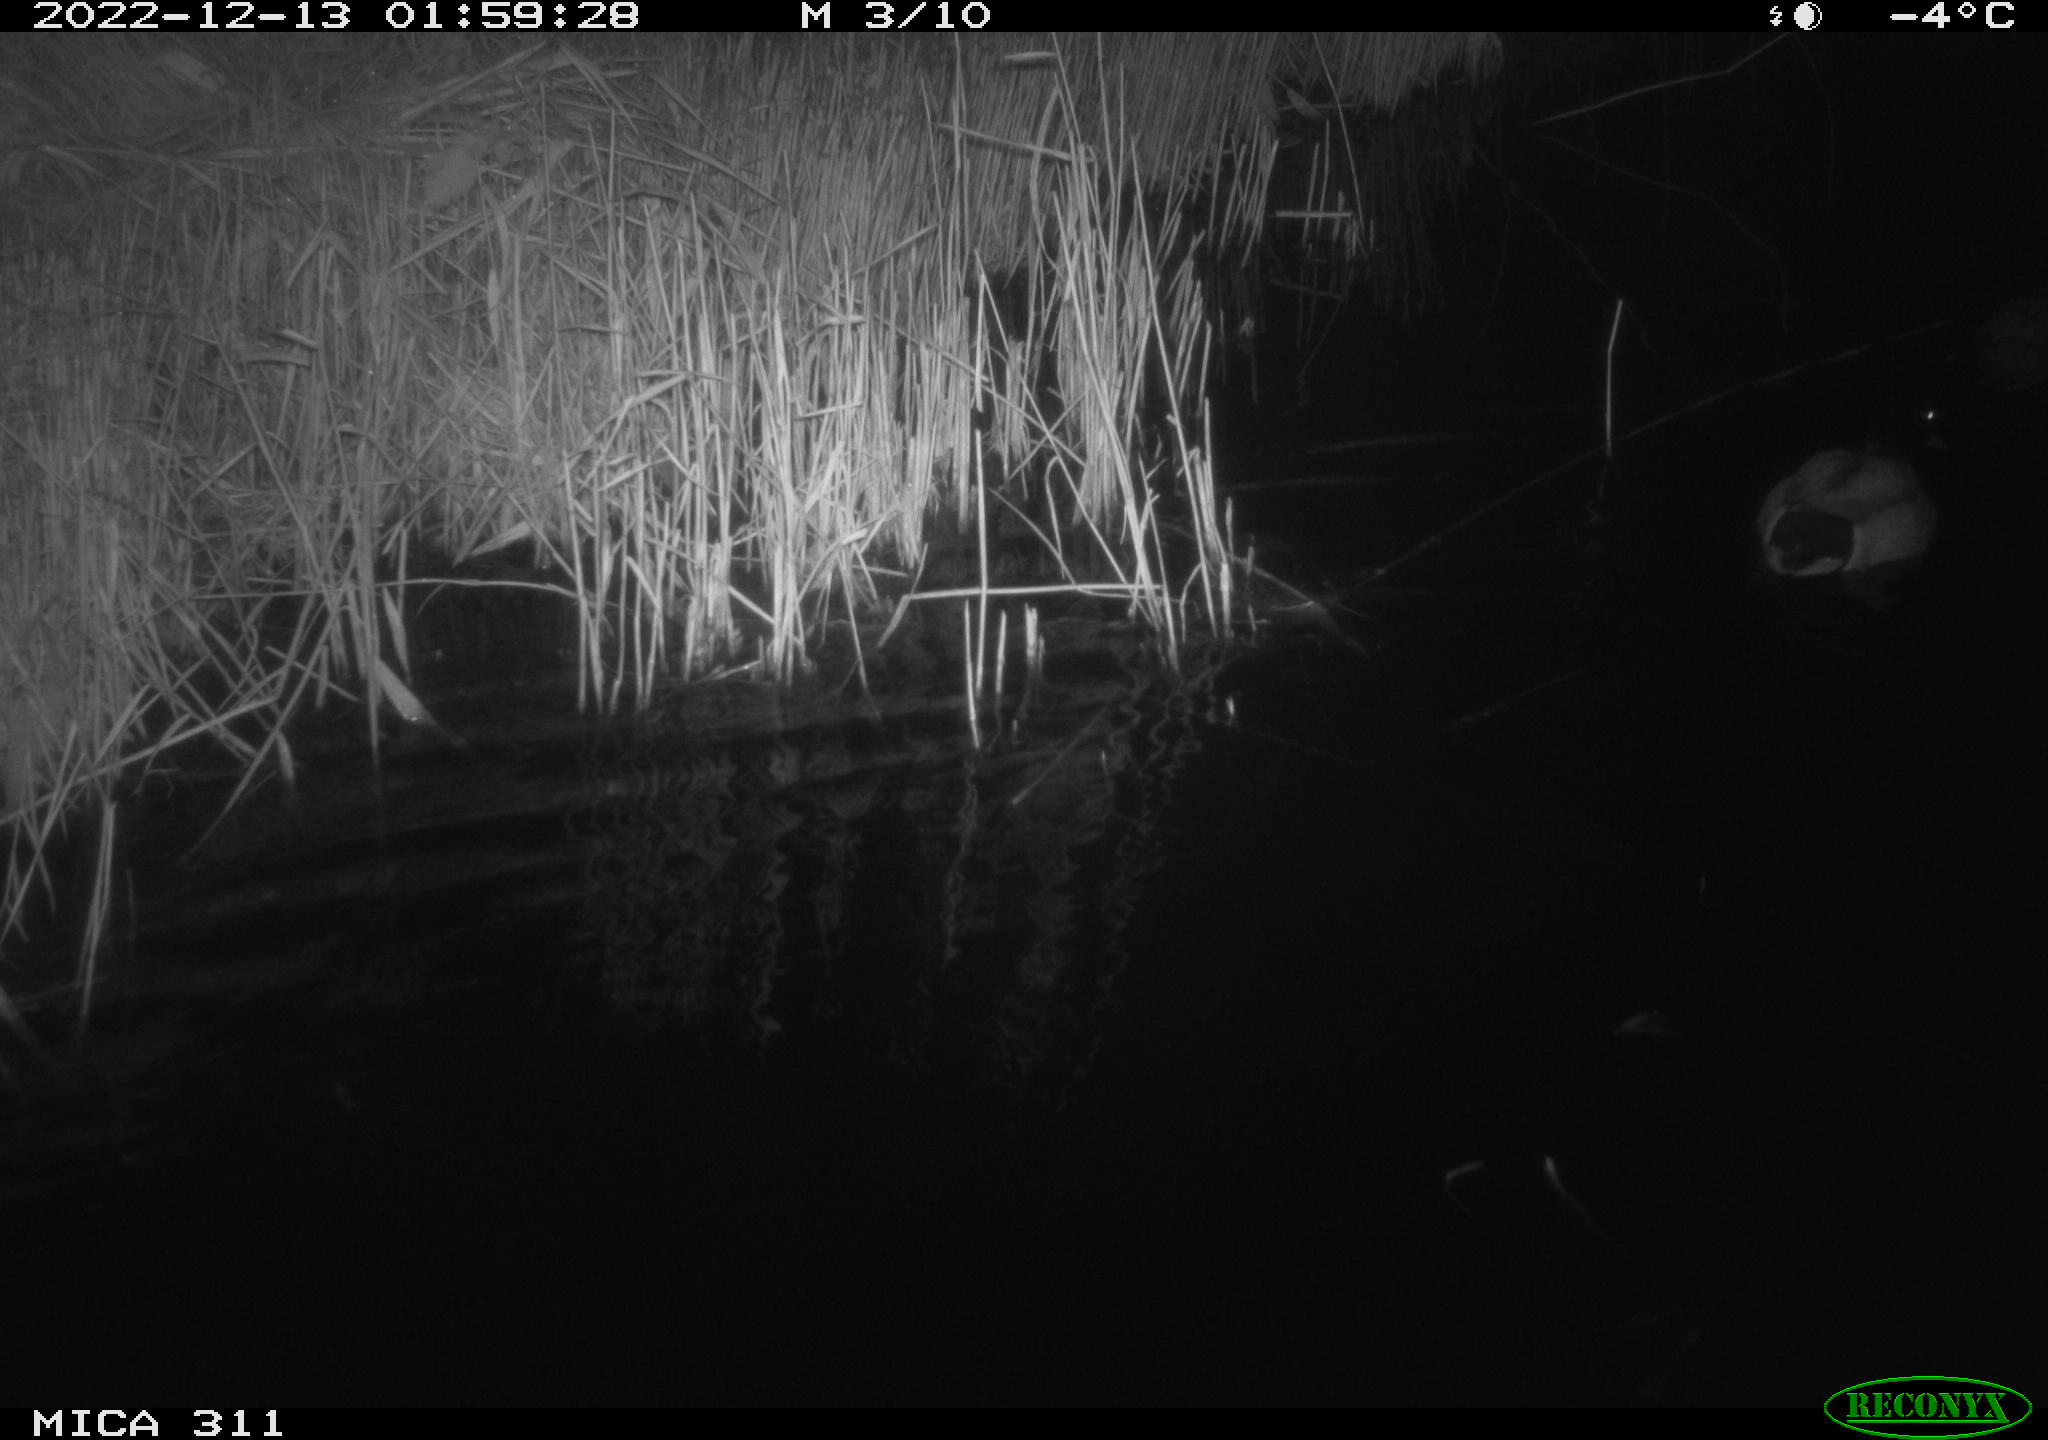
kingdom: Animalia
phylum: Chordata
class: Aves
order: Anseriformes
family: Anatidae
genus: Anas
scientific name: Anas
